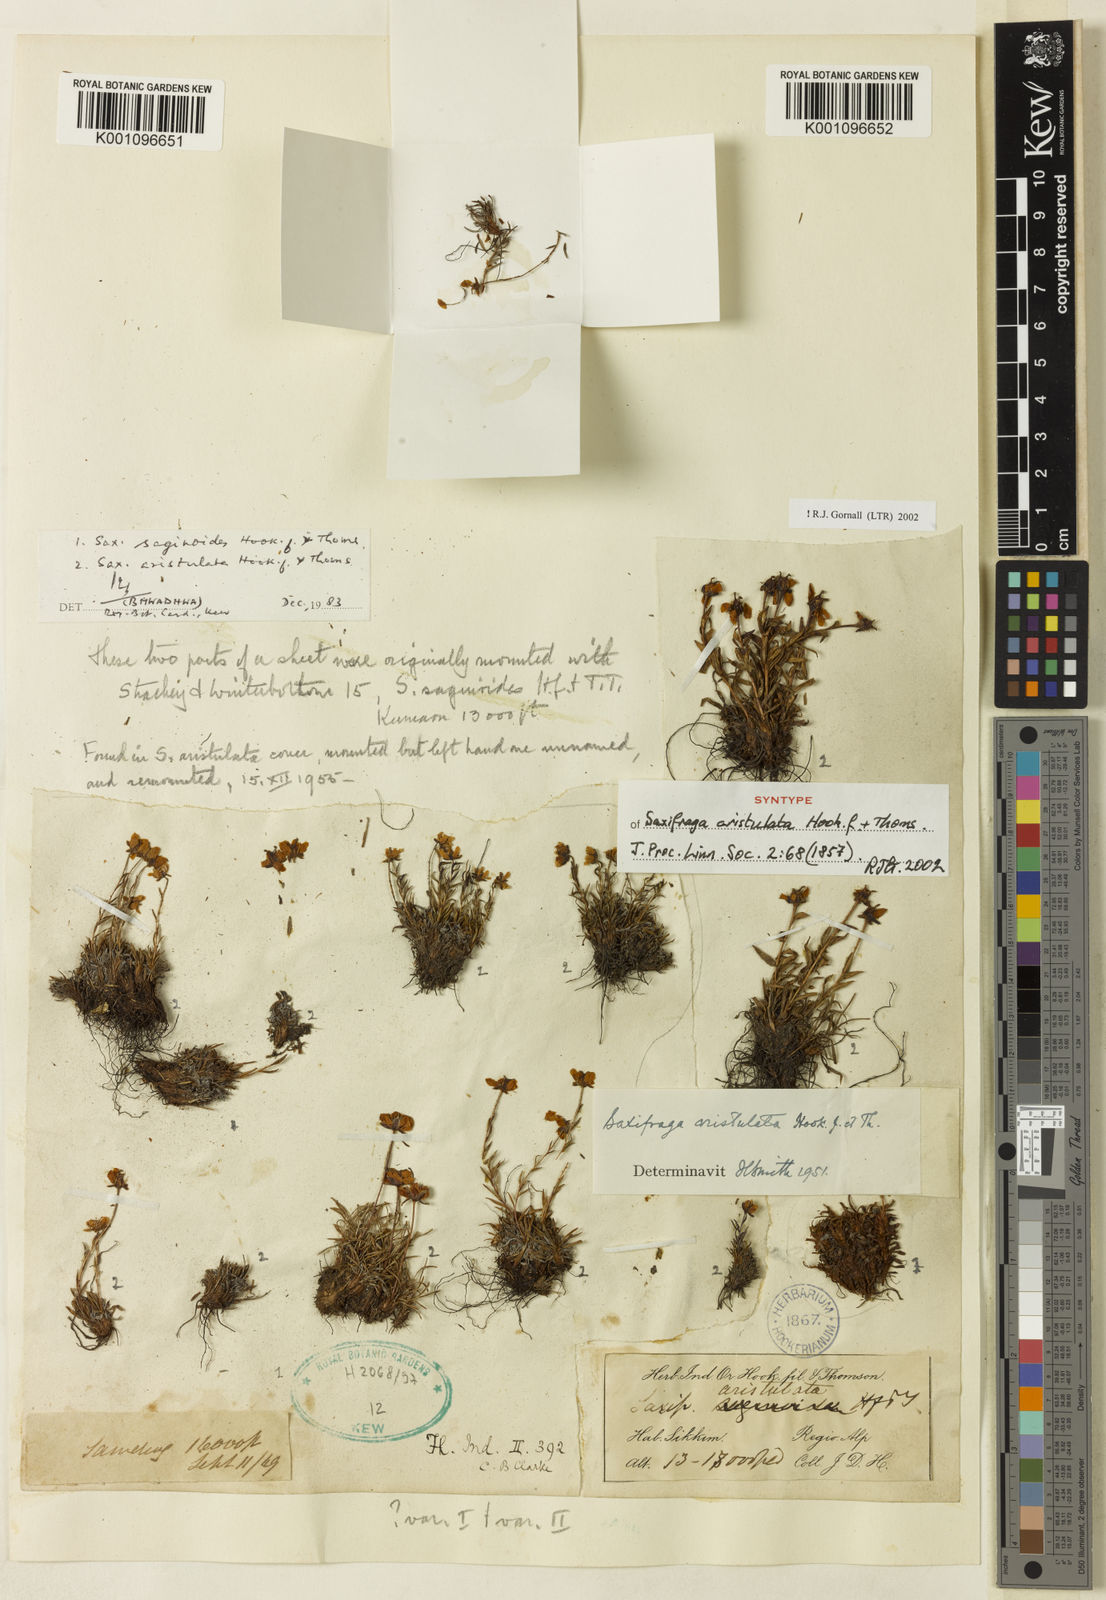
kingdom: Plantae
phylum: Tracheophyta
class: Magnoliopsida
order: Saxifragales
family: Saxifragaceae
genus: Saxifraga
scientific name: Saxifraga aristulata
